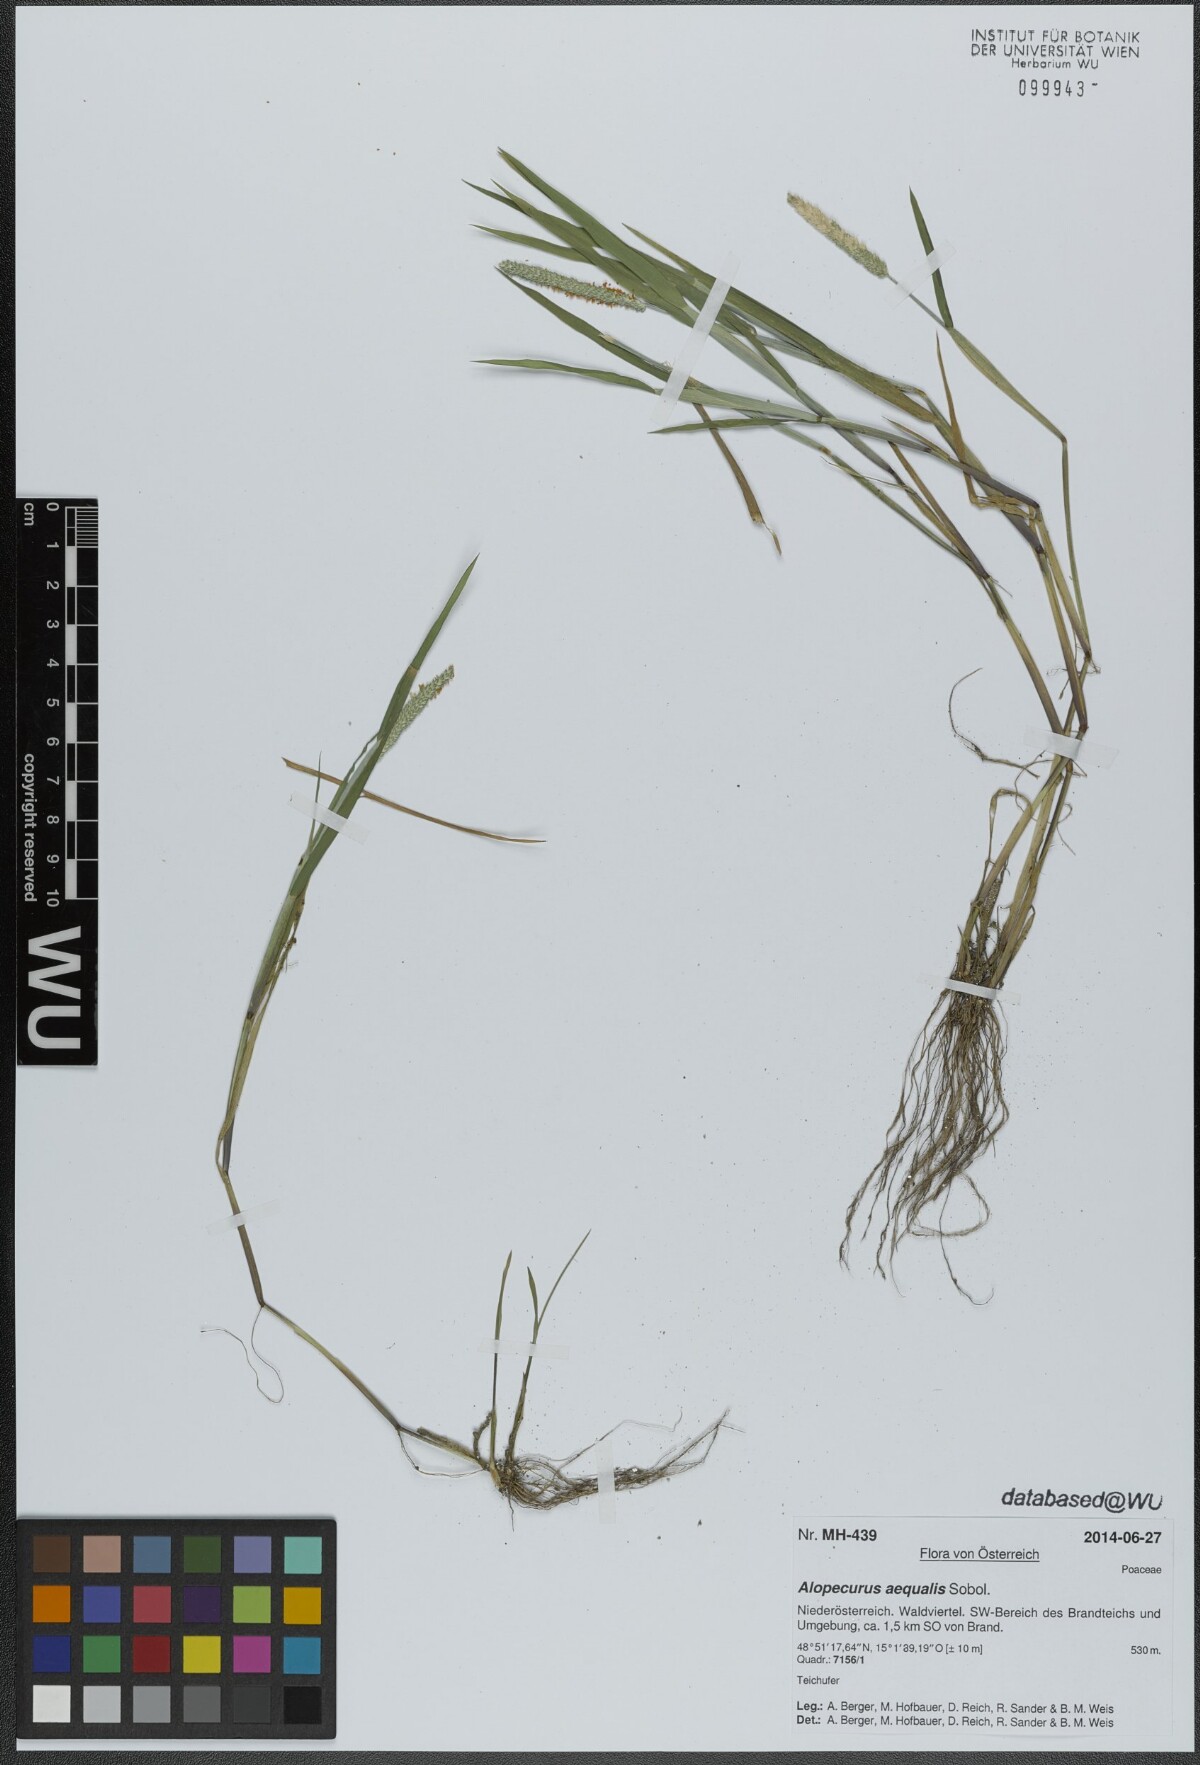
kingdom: Plantae
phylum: Tracheophyta
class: Liliopsida
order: Poales
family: Poaceae
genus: Alopecurus
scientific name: Alopecurus aequalis
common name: Orange foxtail
